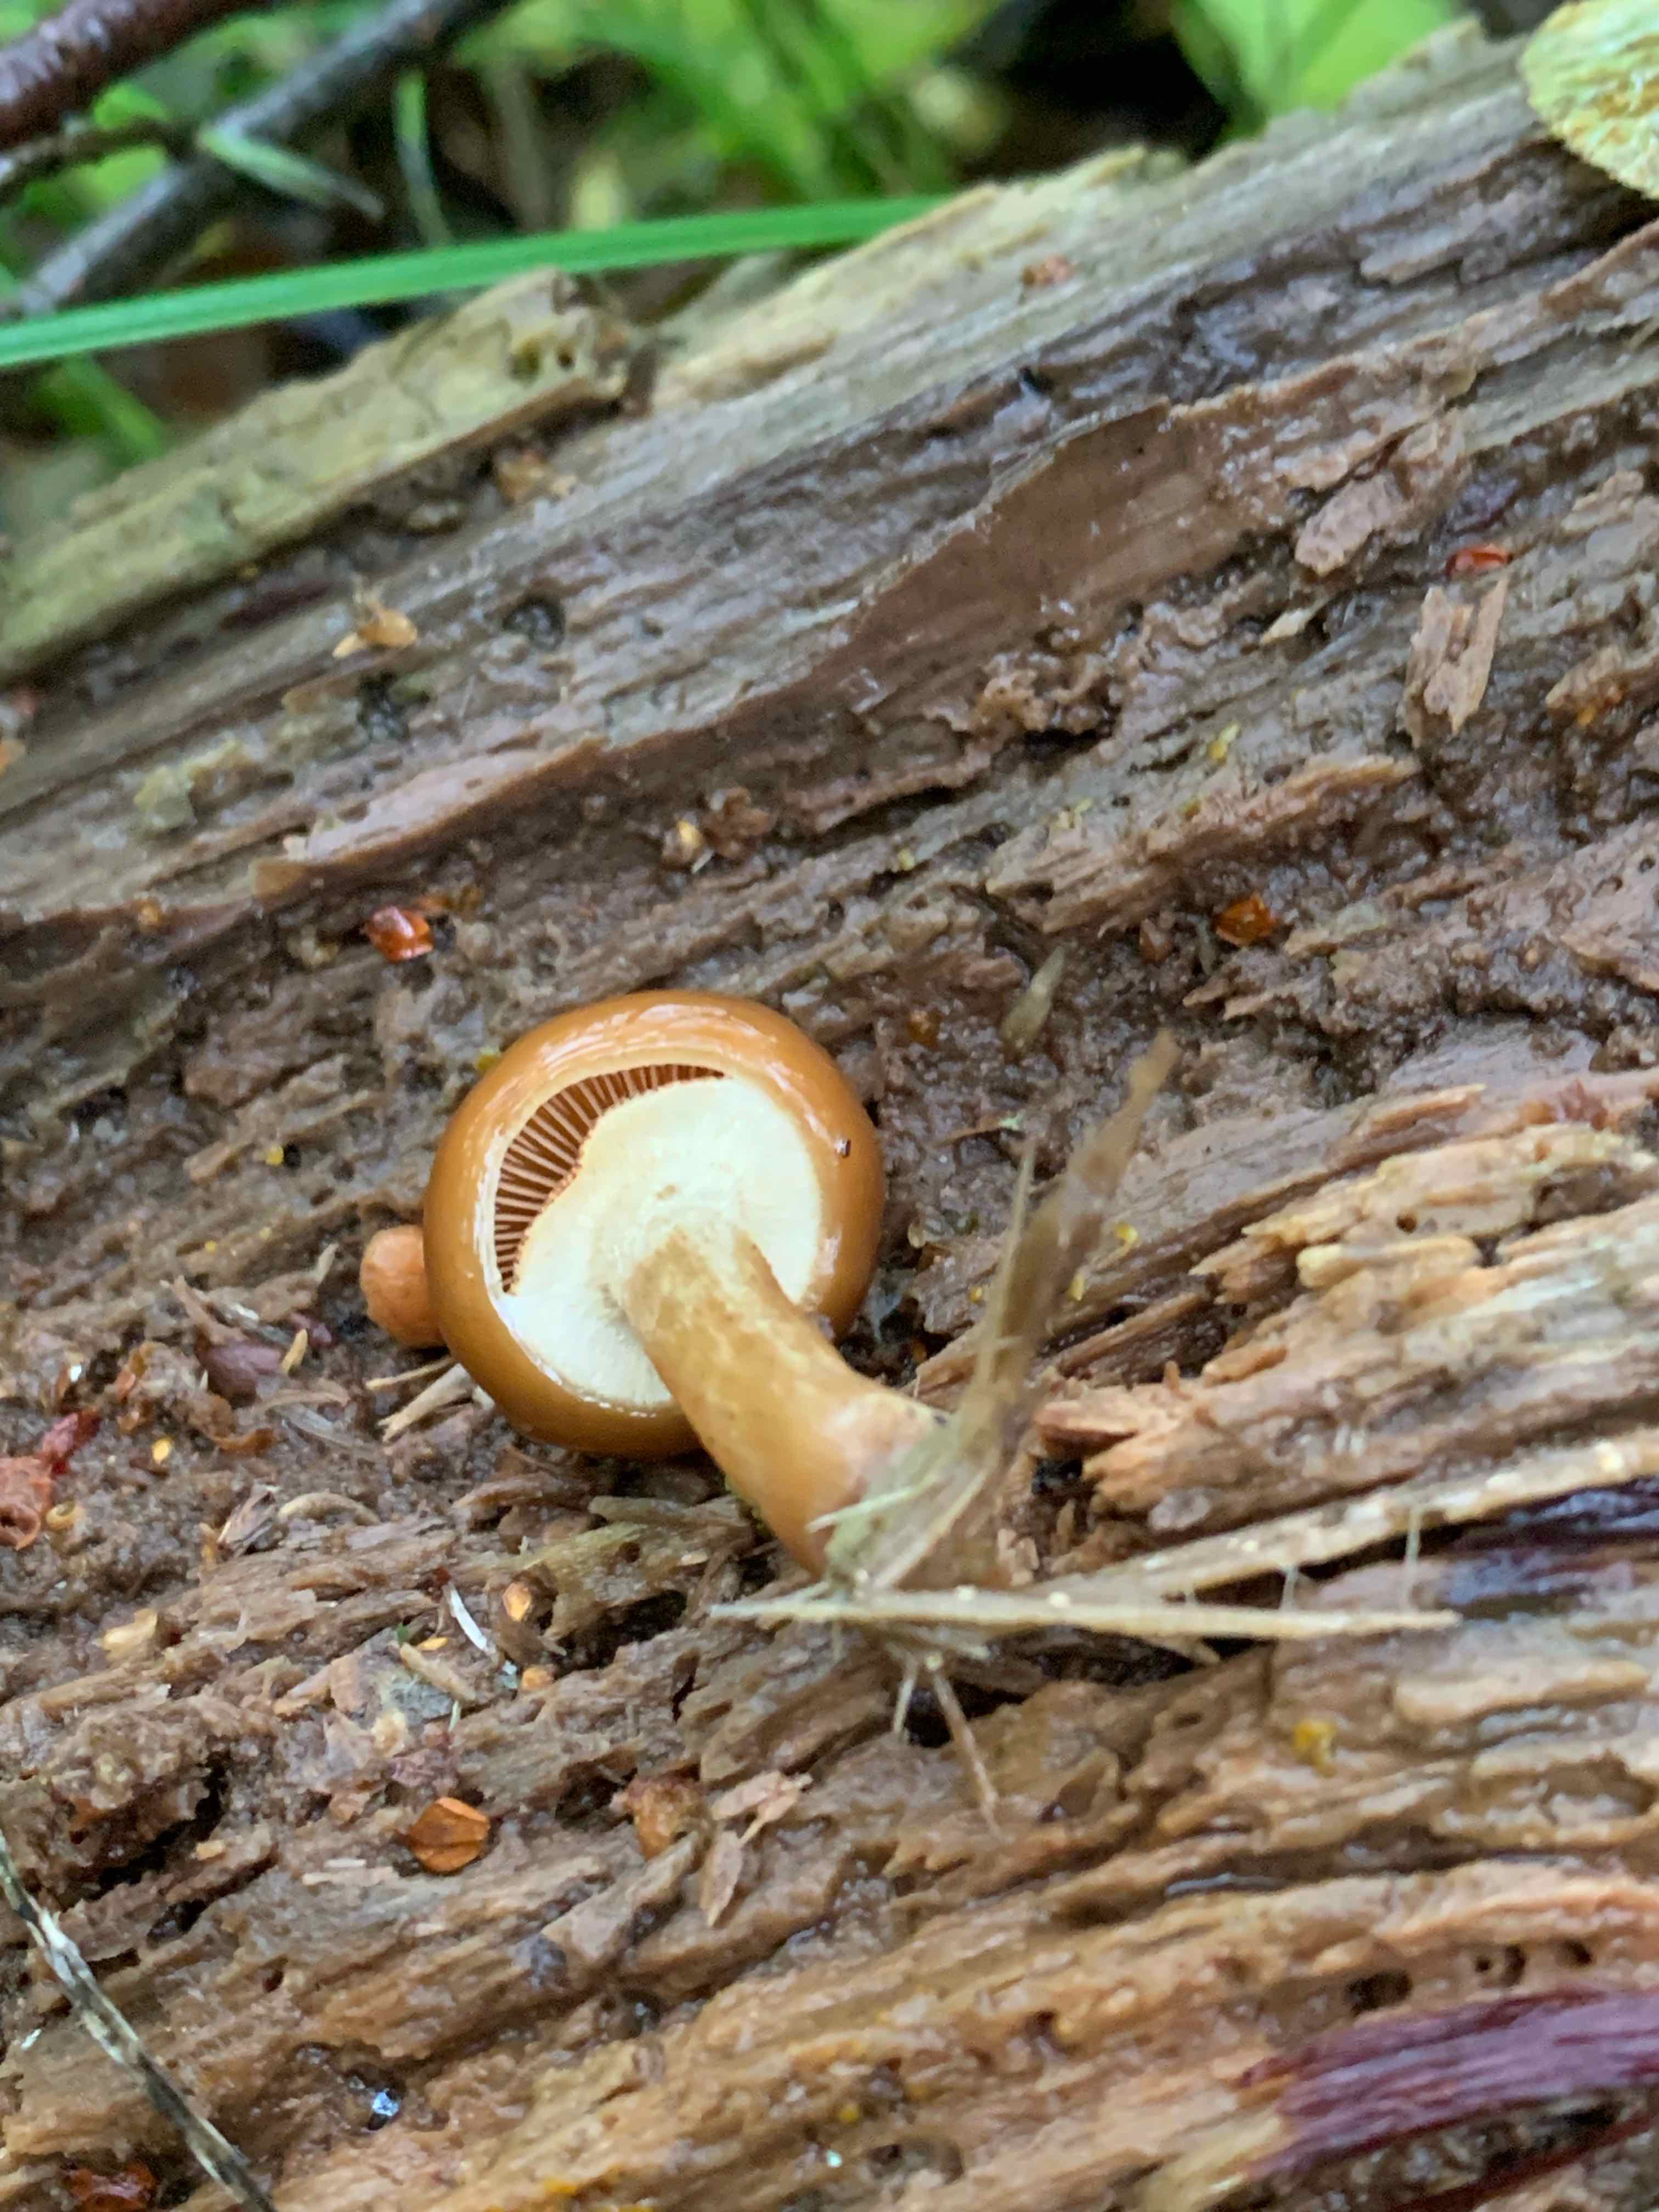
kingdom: Fungi
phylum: Basidiomycota
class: Agaricomycetes
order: Agaricales
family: Hymenogastraceae
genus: Galerina
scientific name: Galerina marginata
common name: randbæltet hjelmhat
